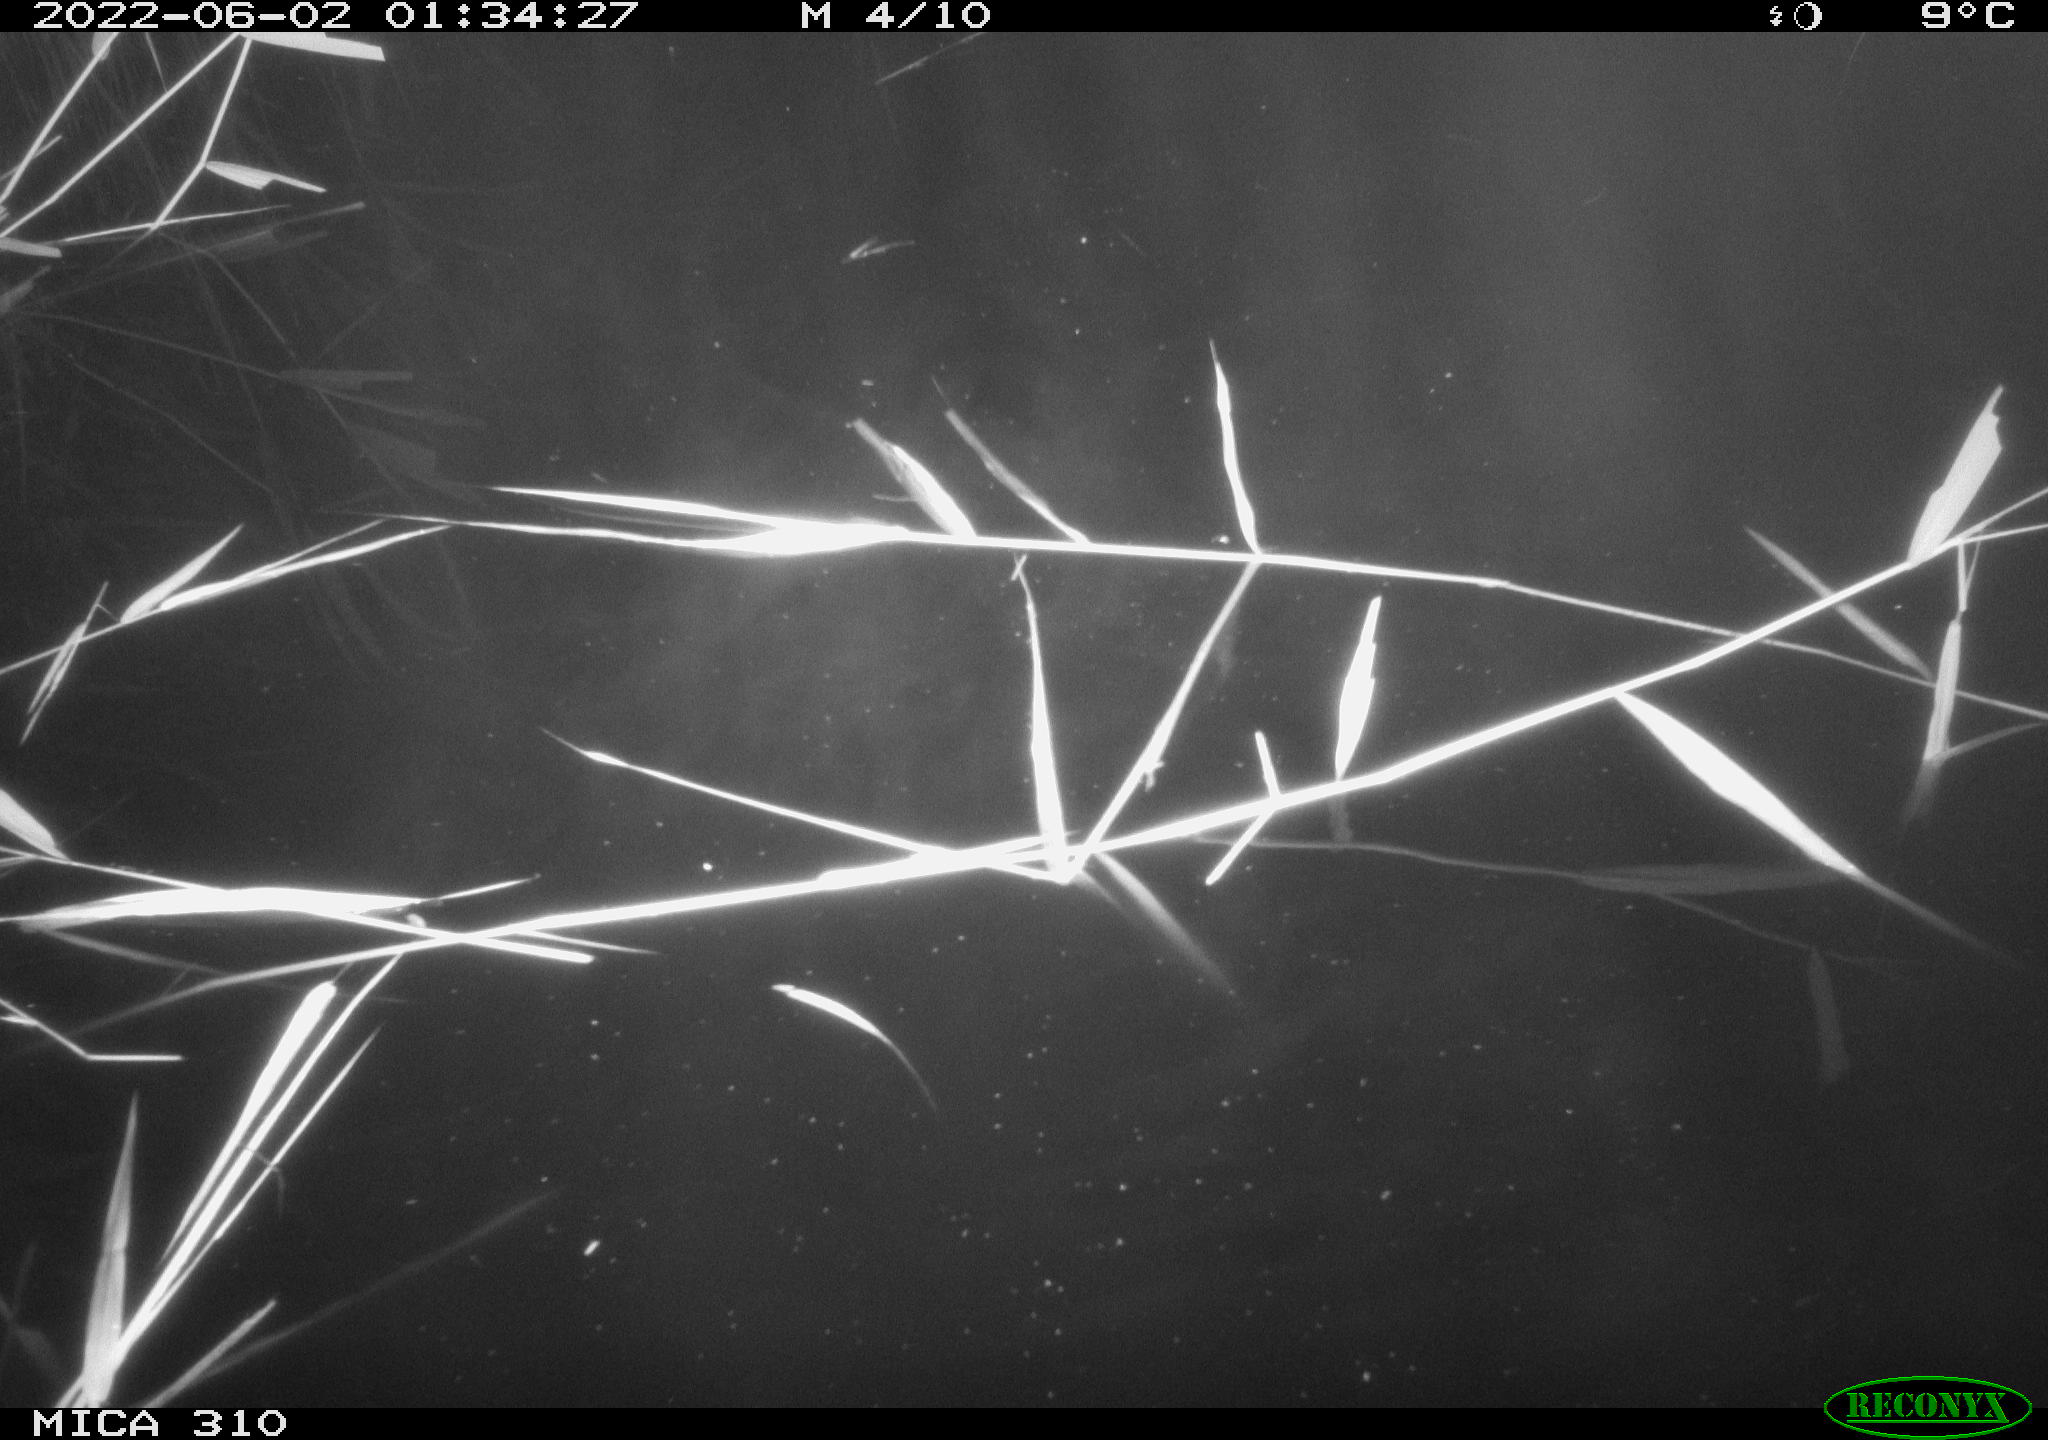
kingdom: Animalia
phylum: Chordata
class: Aves
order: Anseriformes
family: Anatidae
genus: Anas
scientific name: Anas platyrhynchos
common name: Mallard
